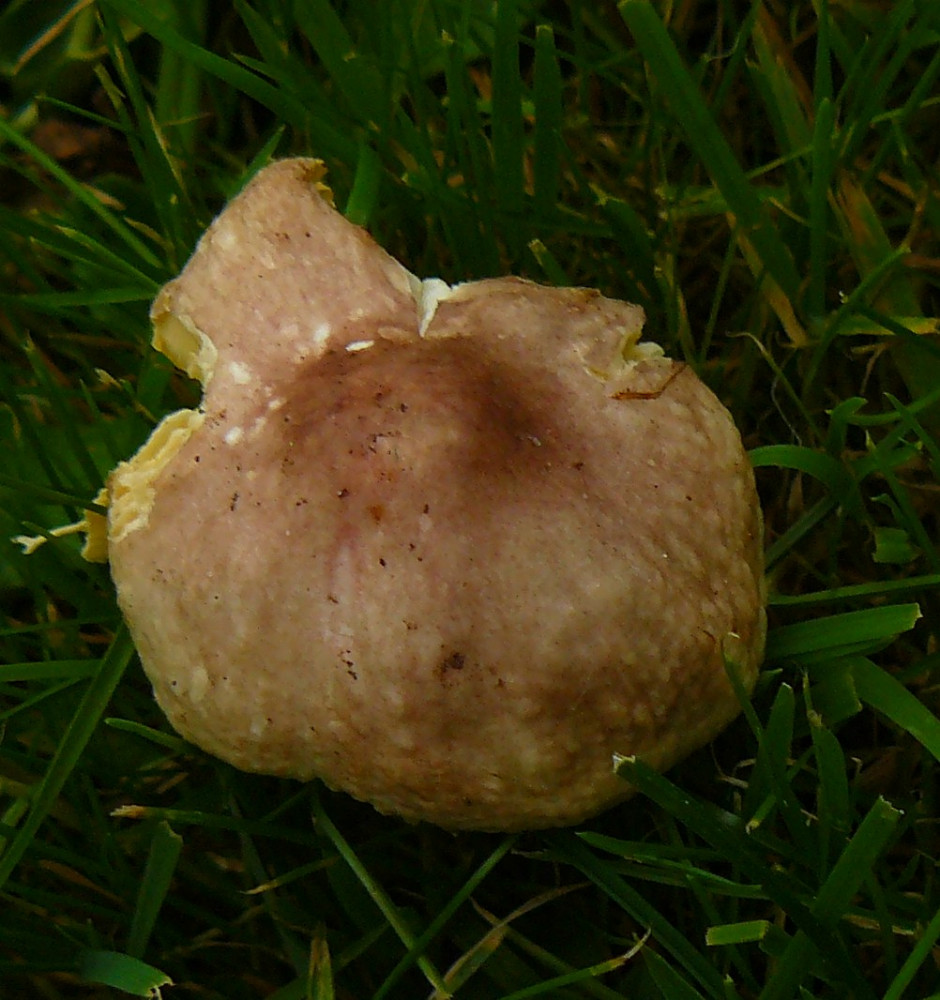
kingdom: Fungi
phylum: Basidiomycota
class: Agaricomycetes
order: Russulales
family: Russulaceae
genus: Russula
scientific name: Russula odorata
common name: duft-skørhat
